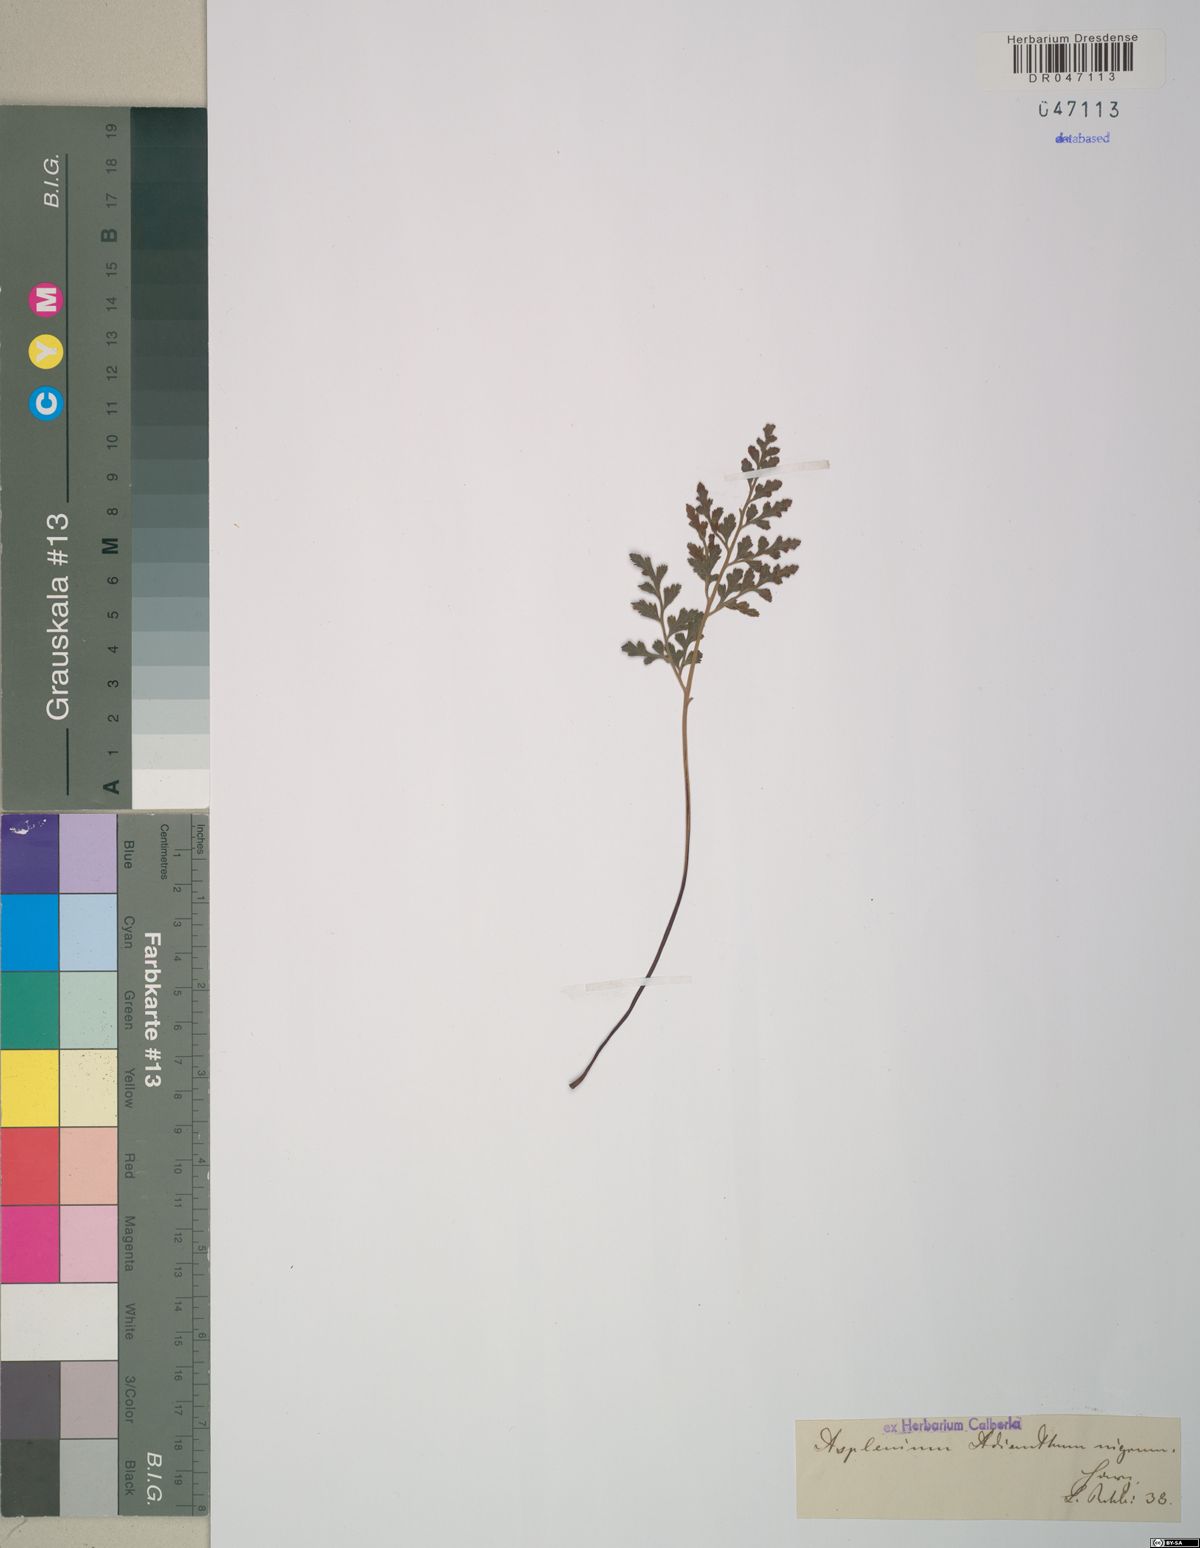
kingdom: Plantae
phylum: Tracheophyta
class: Polypodiopsida
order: Polypodiales
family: Aspleniaceae
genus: Asplenium
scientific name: Asplenium adiantum-nigrum
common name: Black spleenwort
